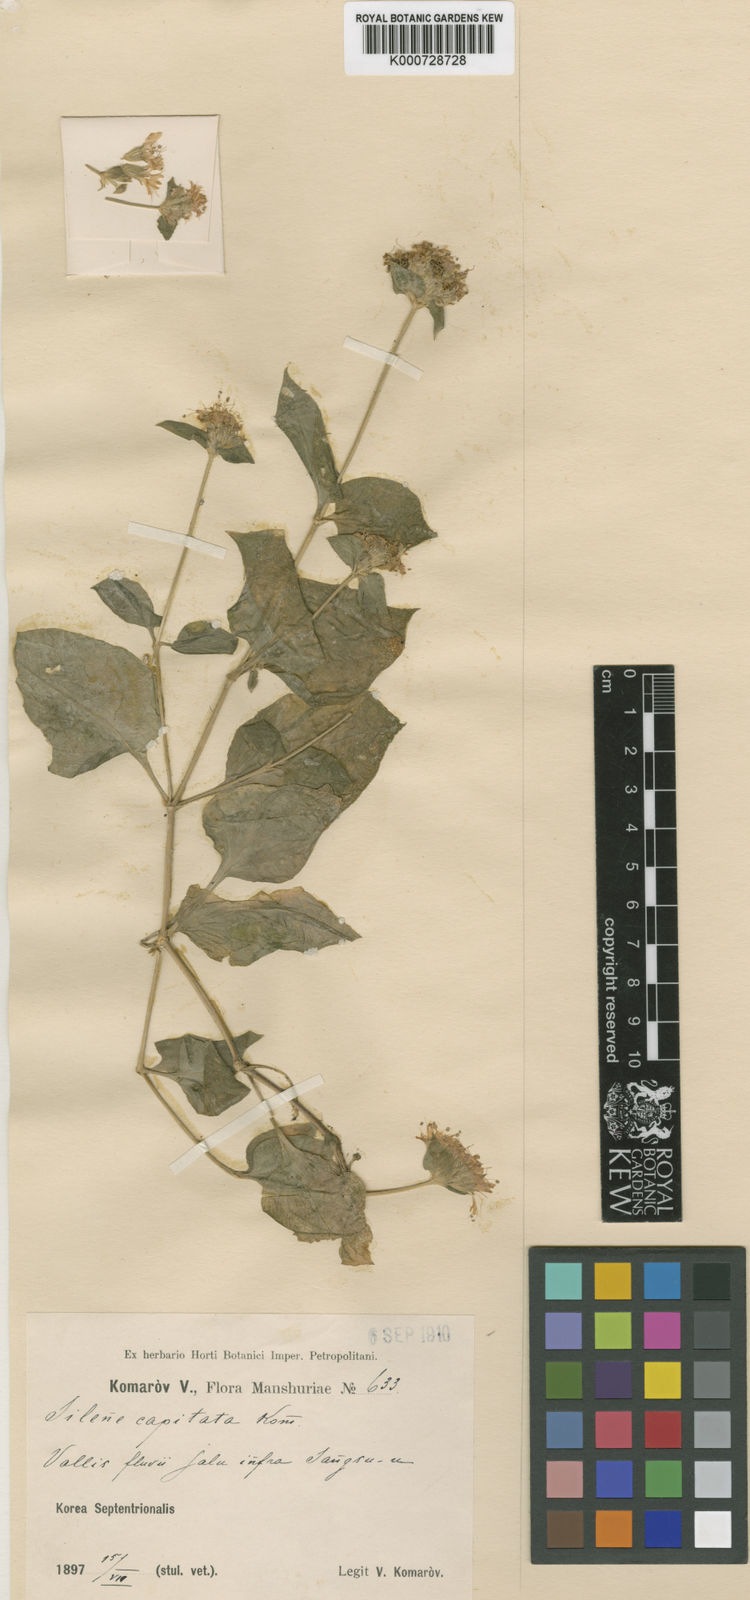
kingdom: Plantae
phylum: Tracheophyta
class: Magnoliopsida
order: Caryophyllales
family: Caryophyllaceae
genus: Silene
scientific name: Silene capitata
